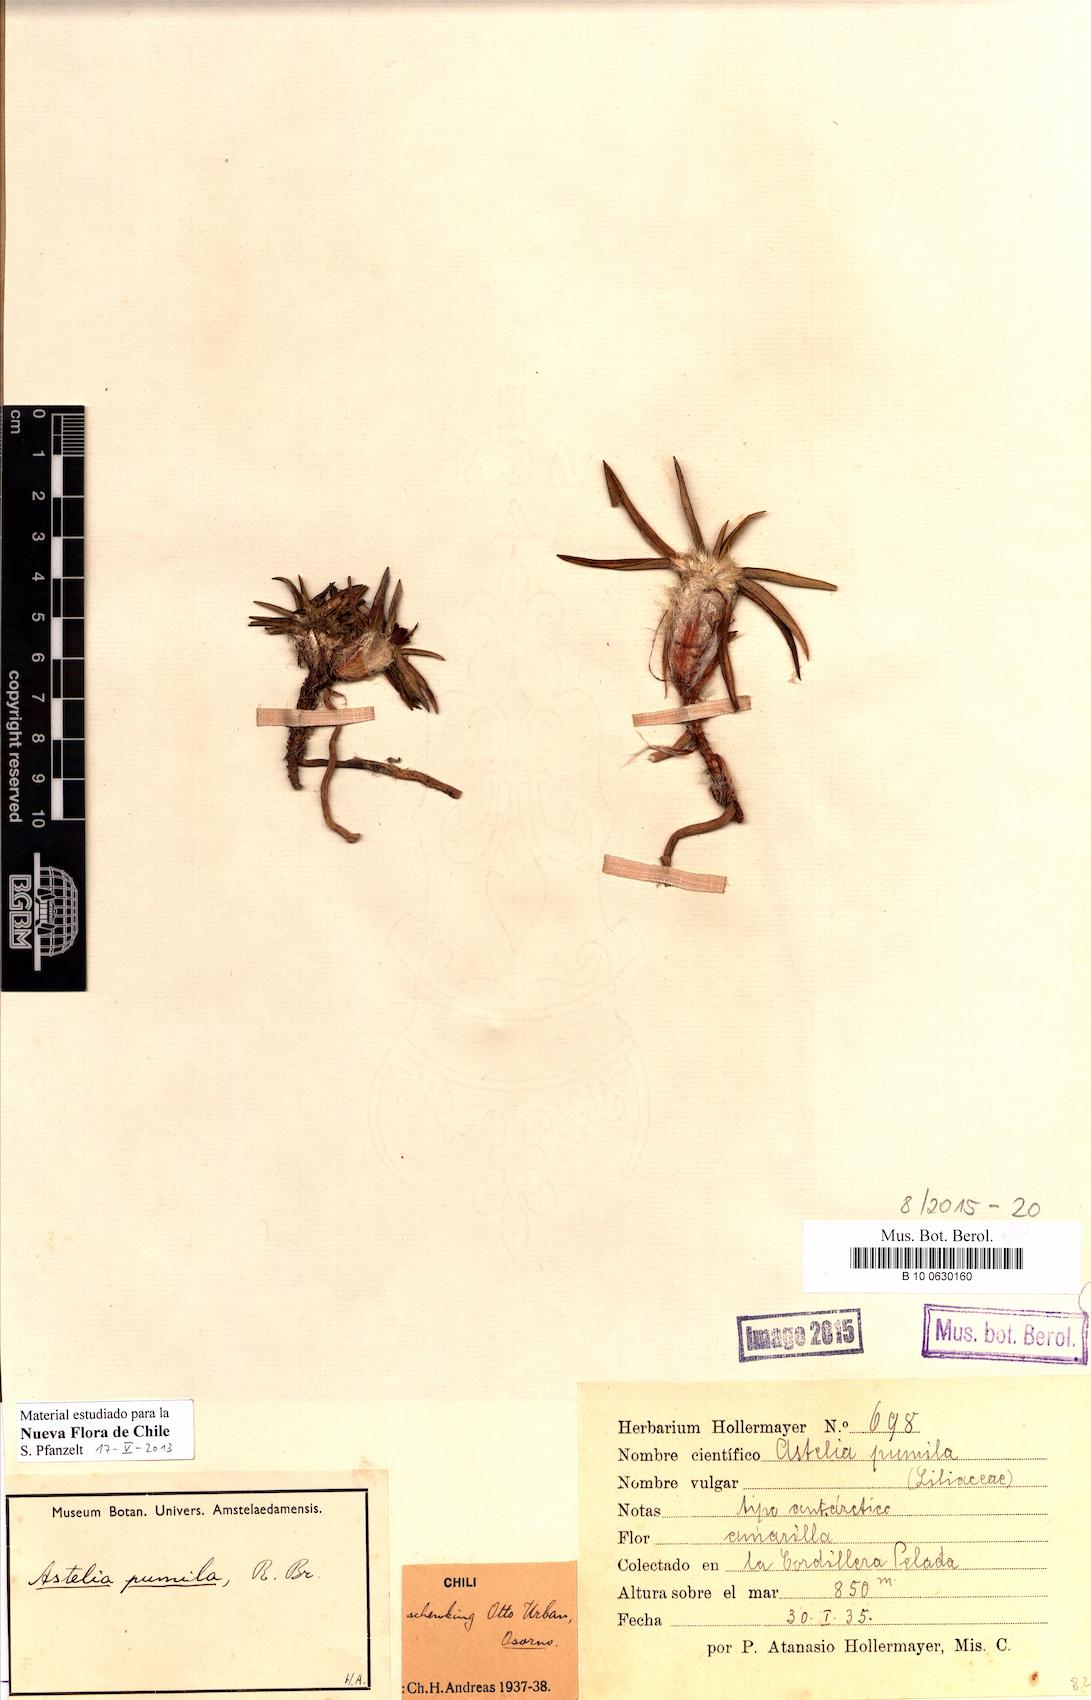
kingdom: Plantae
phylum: Tracheophyta
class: Liliopsida
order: Asparagales
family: Asteliaceae
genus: Astelia
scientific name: Astelia pumila
